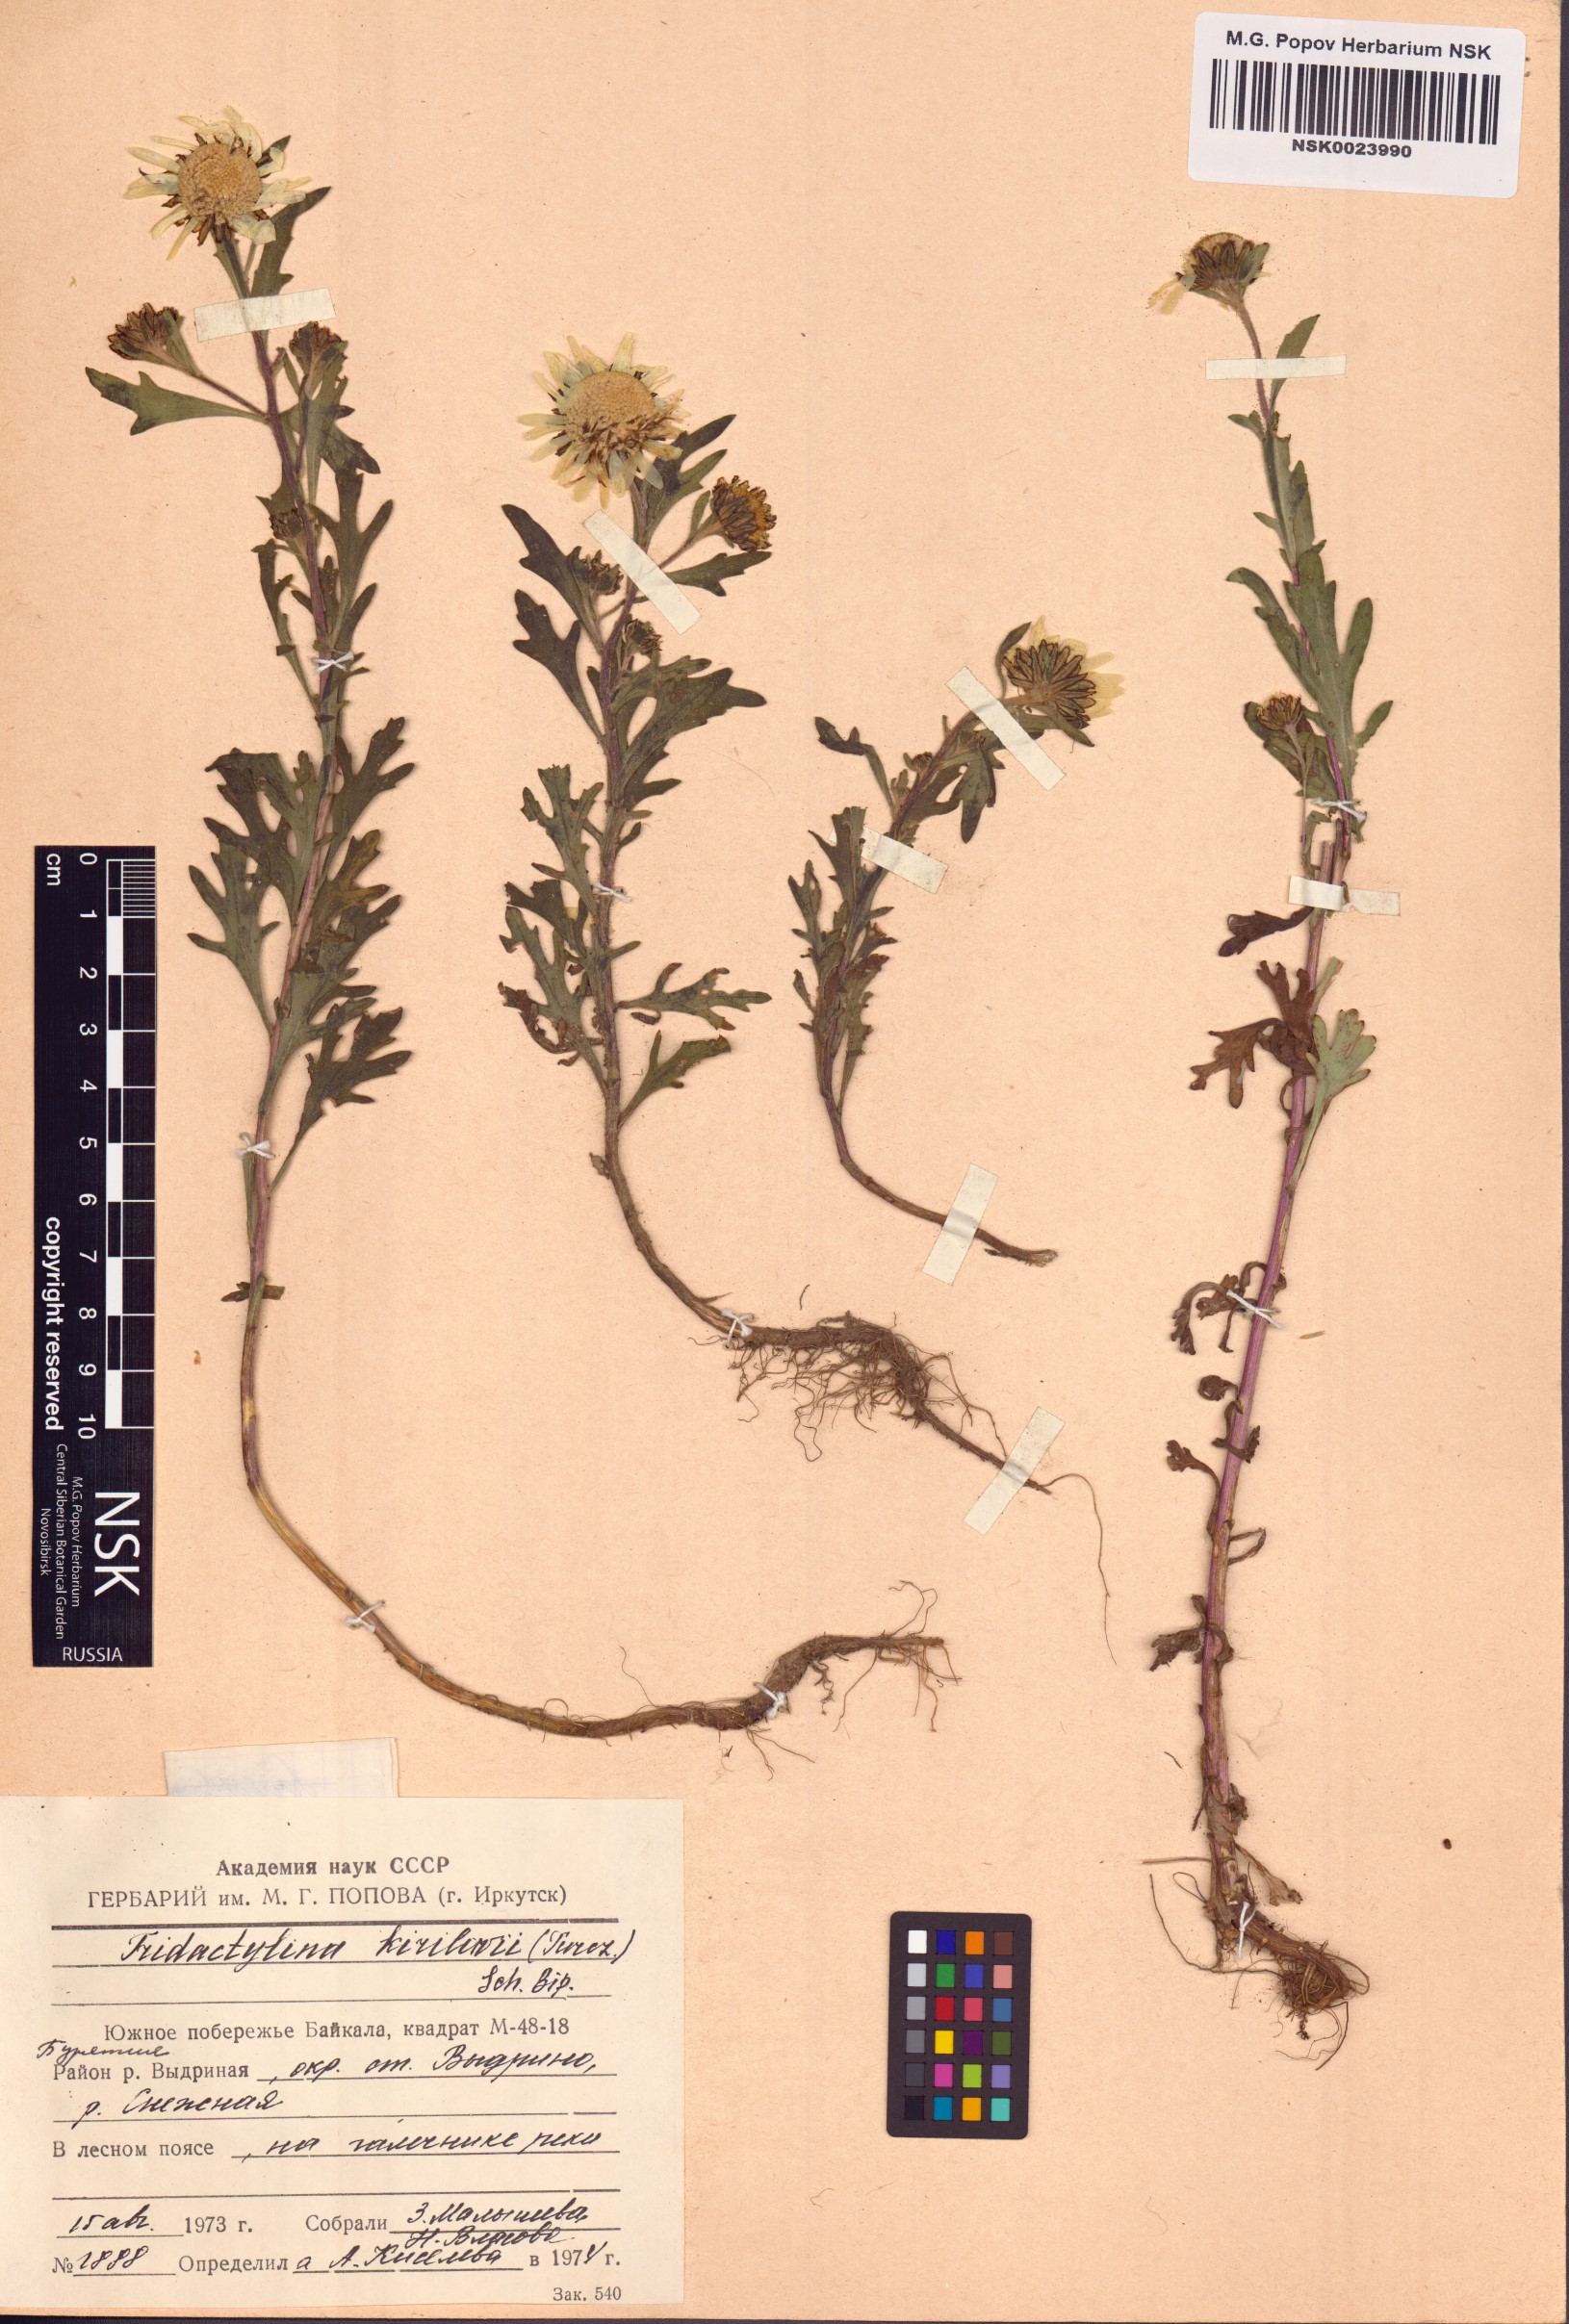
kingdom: Plantae
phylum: Tracheophyta
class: Magnoliopsida
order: Asterales
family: Asteraceae
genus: Tridactylina
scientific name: Tridactylina kirilowii
